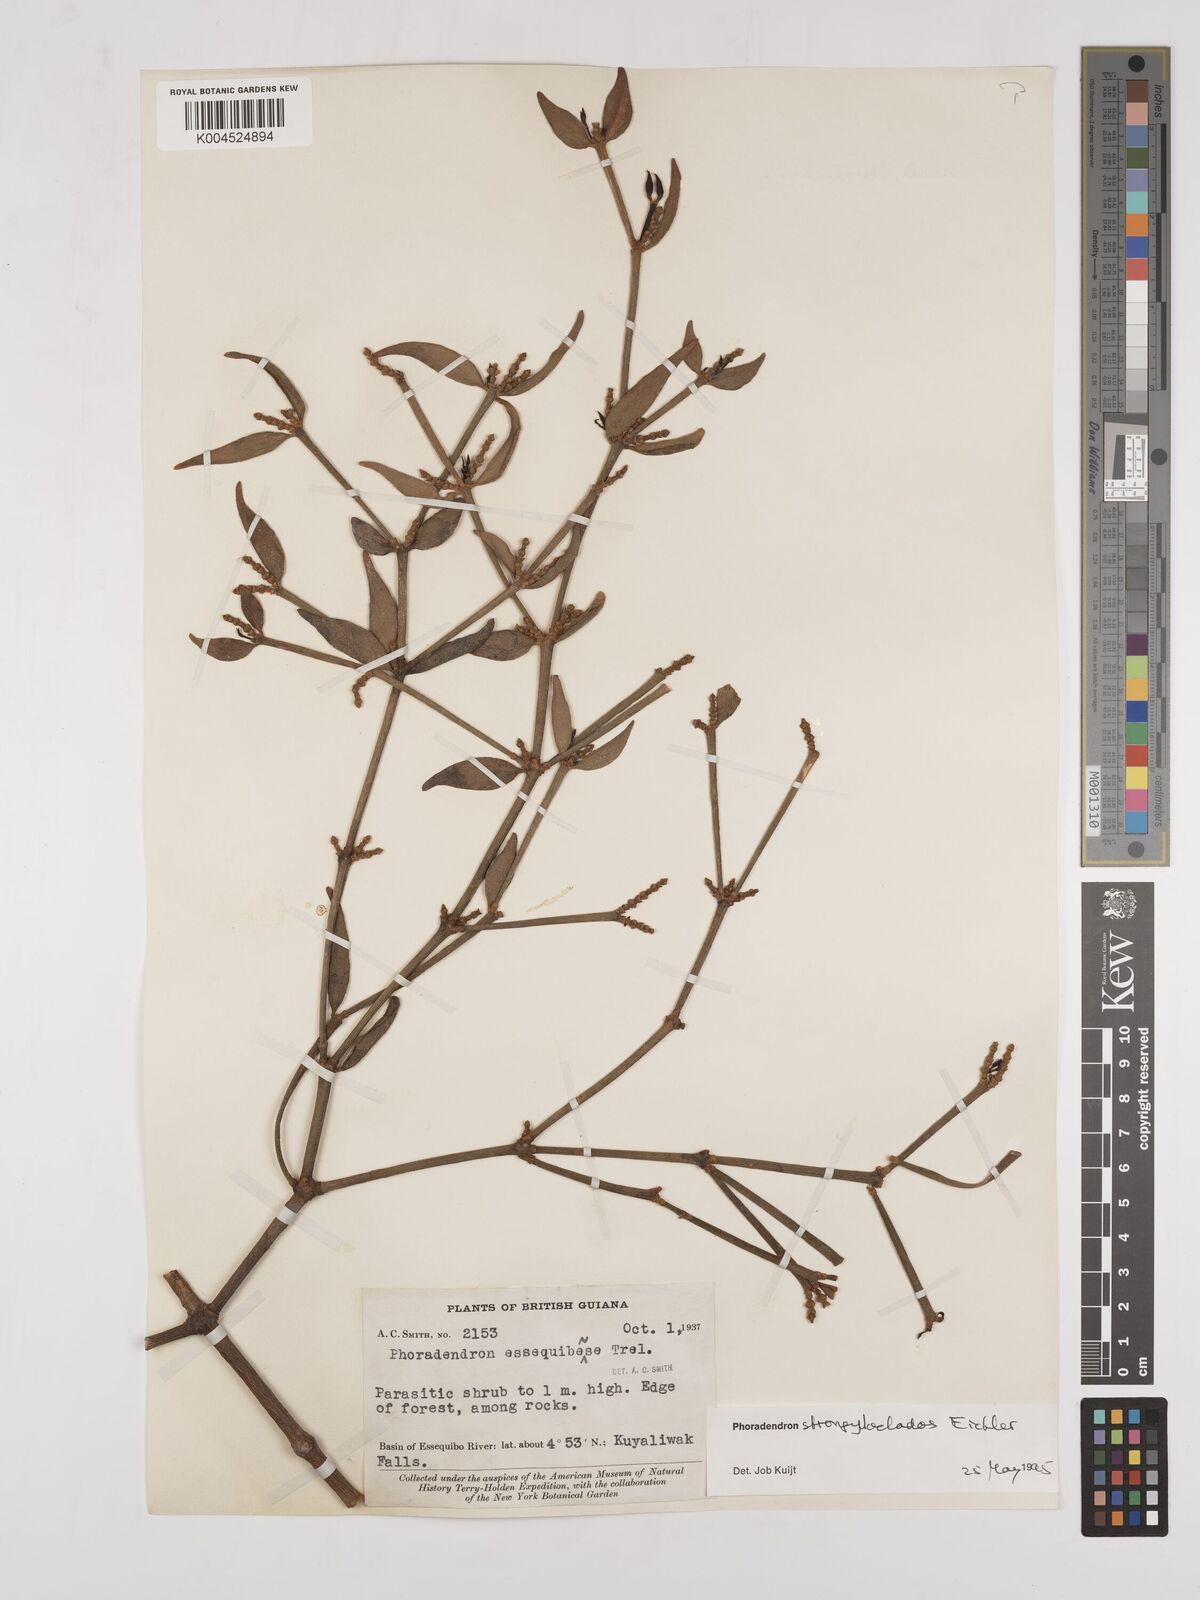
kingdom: Plantae
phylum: Tracheophyta
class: Magnoliopsida
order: Santalales
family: Viscaceae
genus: Phoradendron
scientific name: Phoradendron strongyloclados
